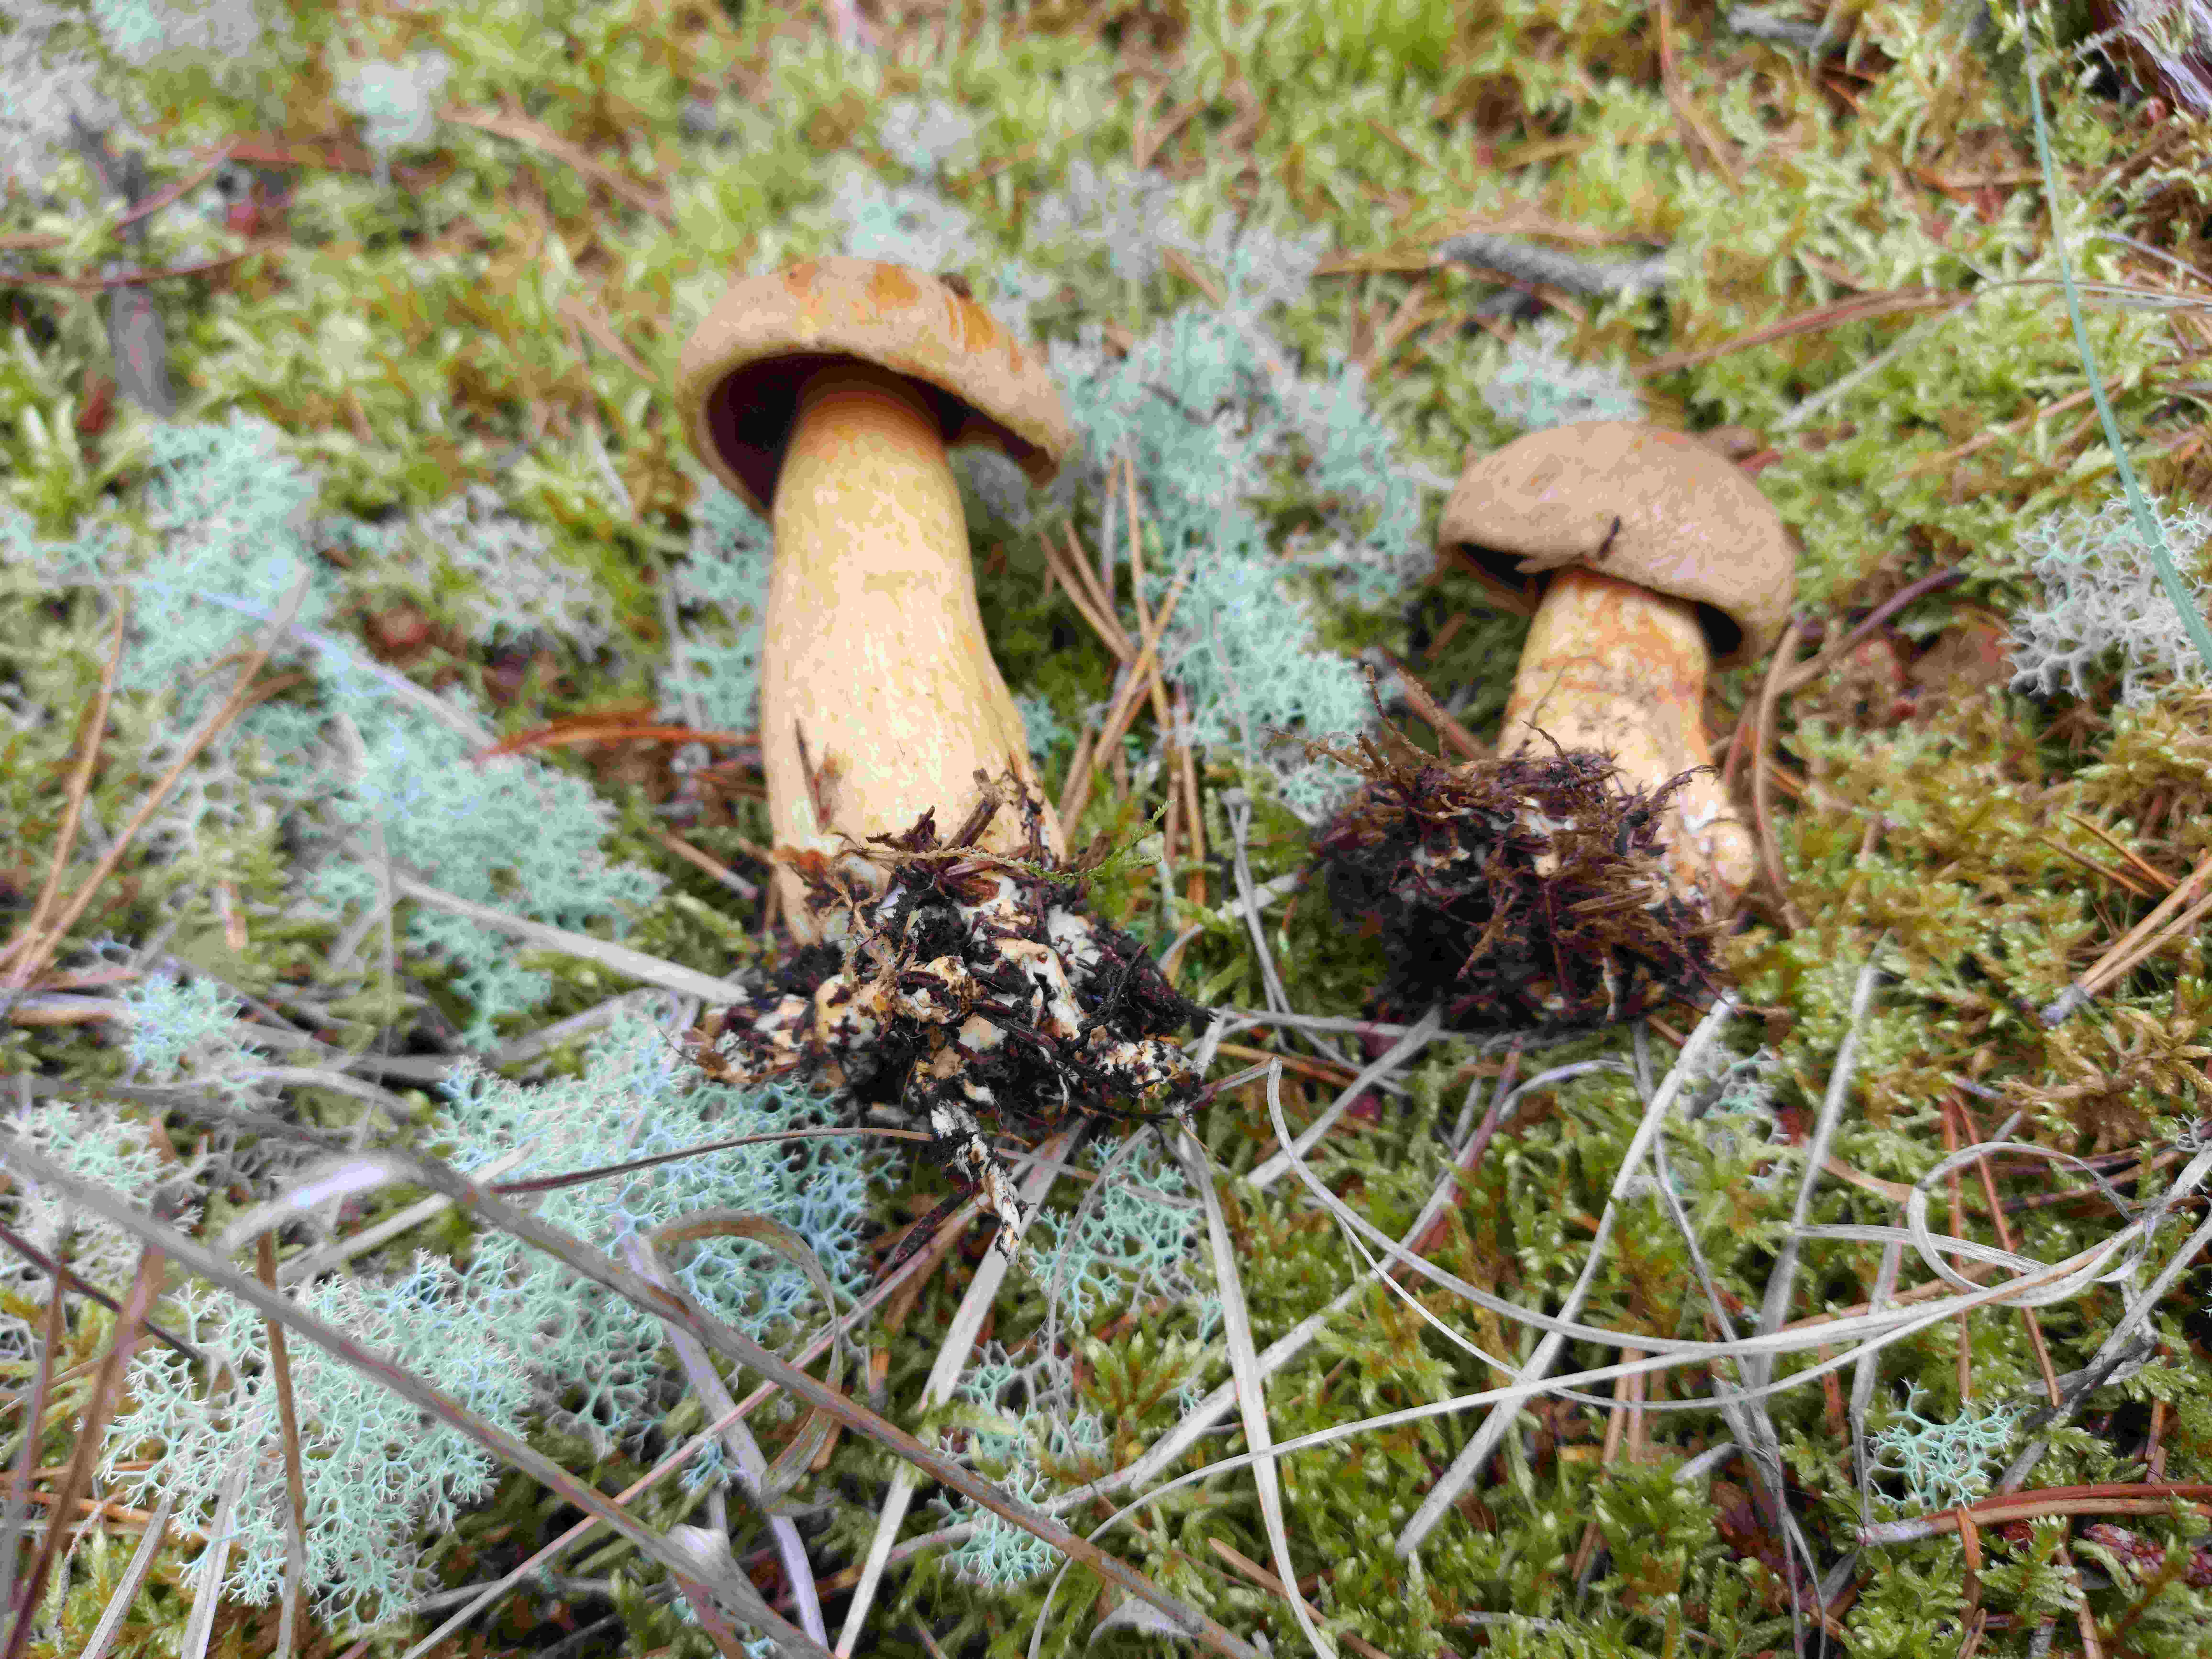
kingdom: Fungi
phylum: Basidiomycota
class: Agaricomycetes
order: Boletales
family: Suillaceae
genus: Suillus
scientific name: Suillus variegatus
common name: broget slimrørhat
